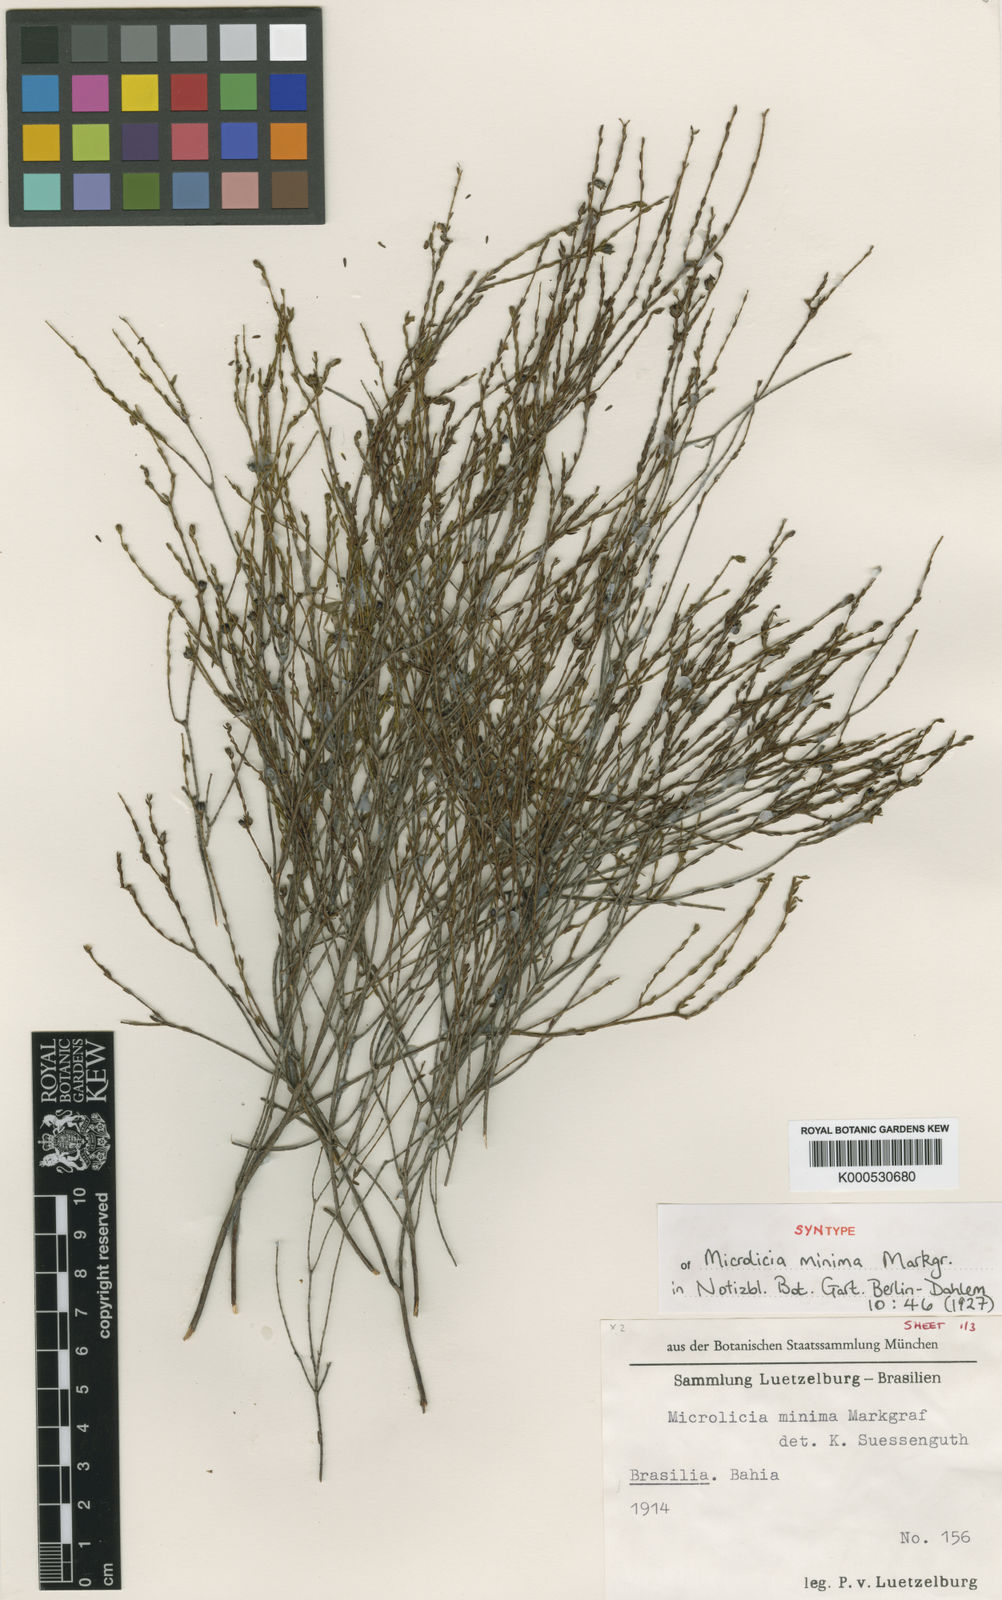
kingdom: Plantae
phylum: Tracheophyta
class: Magnoliopsida
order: Myrtales
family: Melastomataceae
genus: Microlicia
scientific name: Microlicia minima
